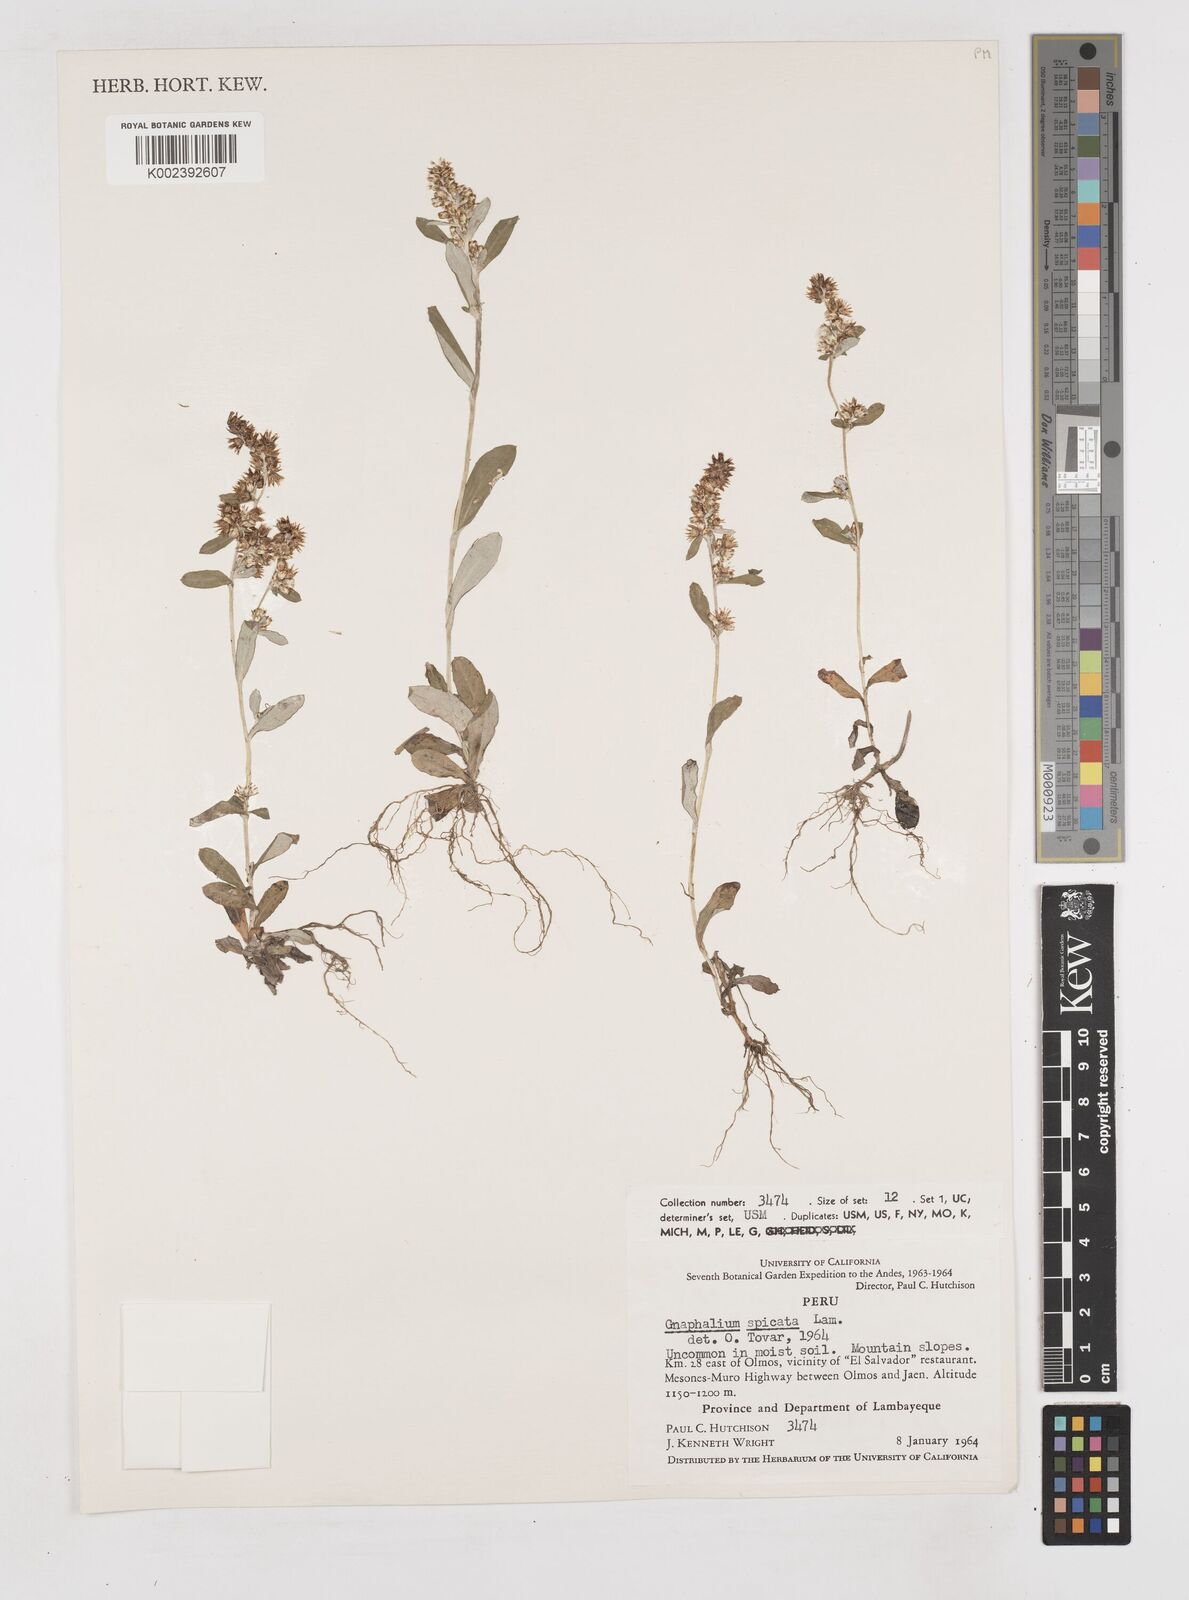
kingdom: Plantae
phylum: Tracheophyta
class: Magnoliopsida
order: Asterales
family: Asteraceae
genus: Gamochaeta
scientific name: Gamochaeta americana
